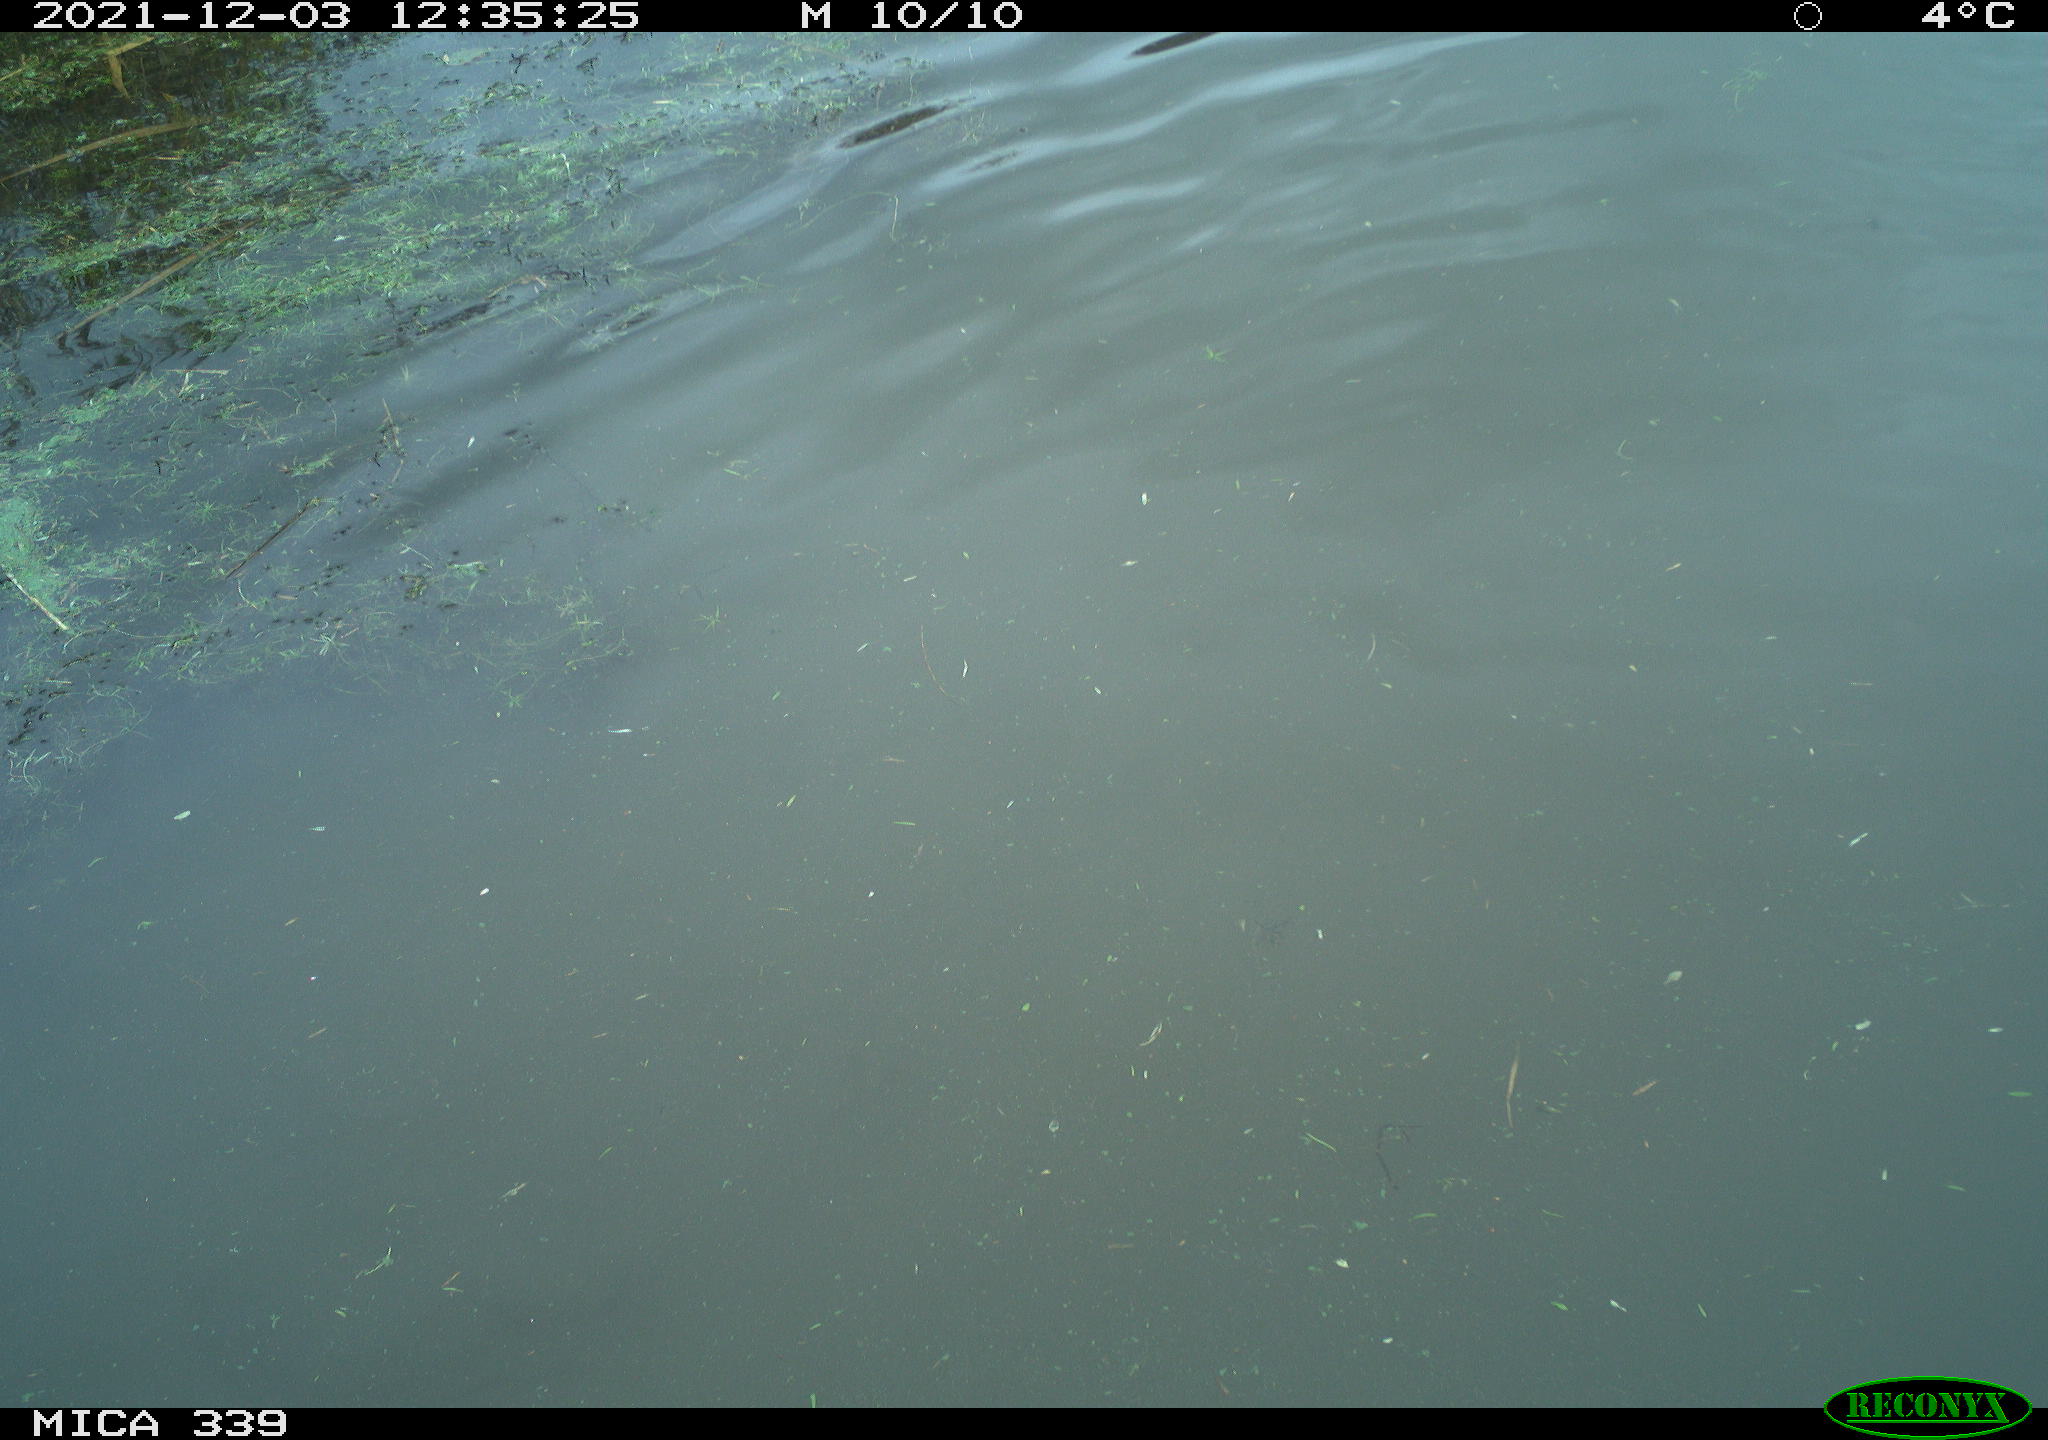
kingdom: Animalia
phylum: Chordata
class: Aves
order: Suliformes
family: Phalacrocoracidae
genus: Phalacrocorax
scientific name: Phalacrocorax carbo
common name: Great cormorant
